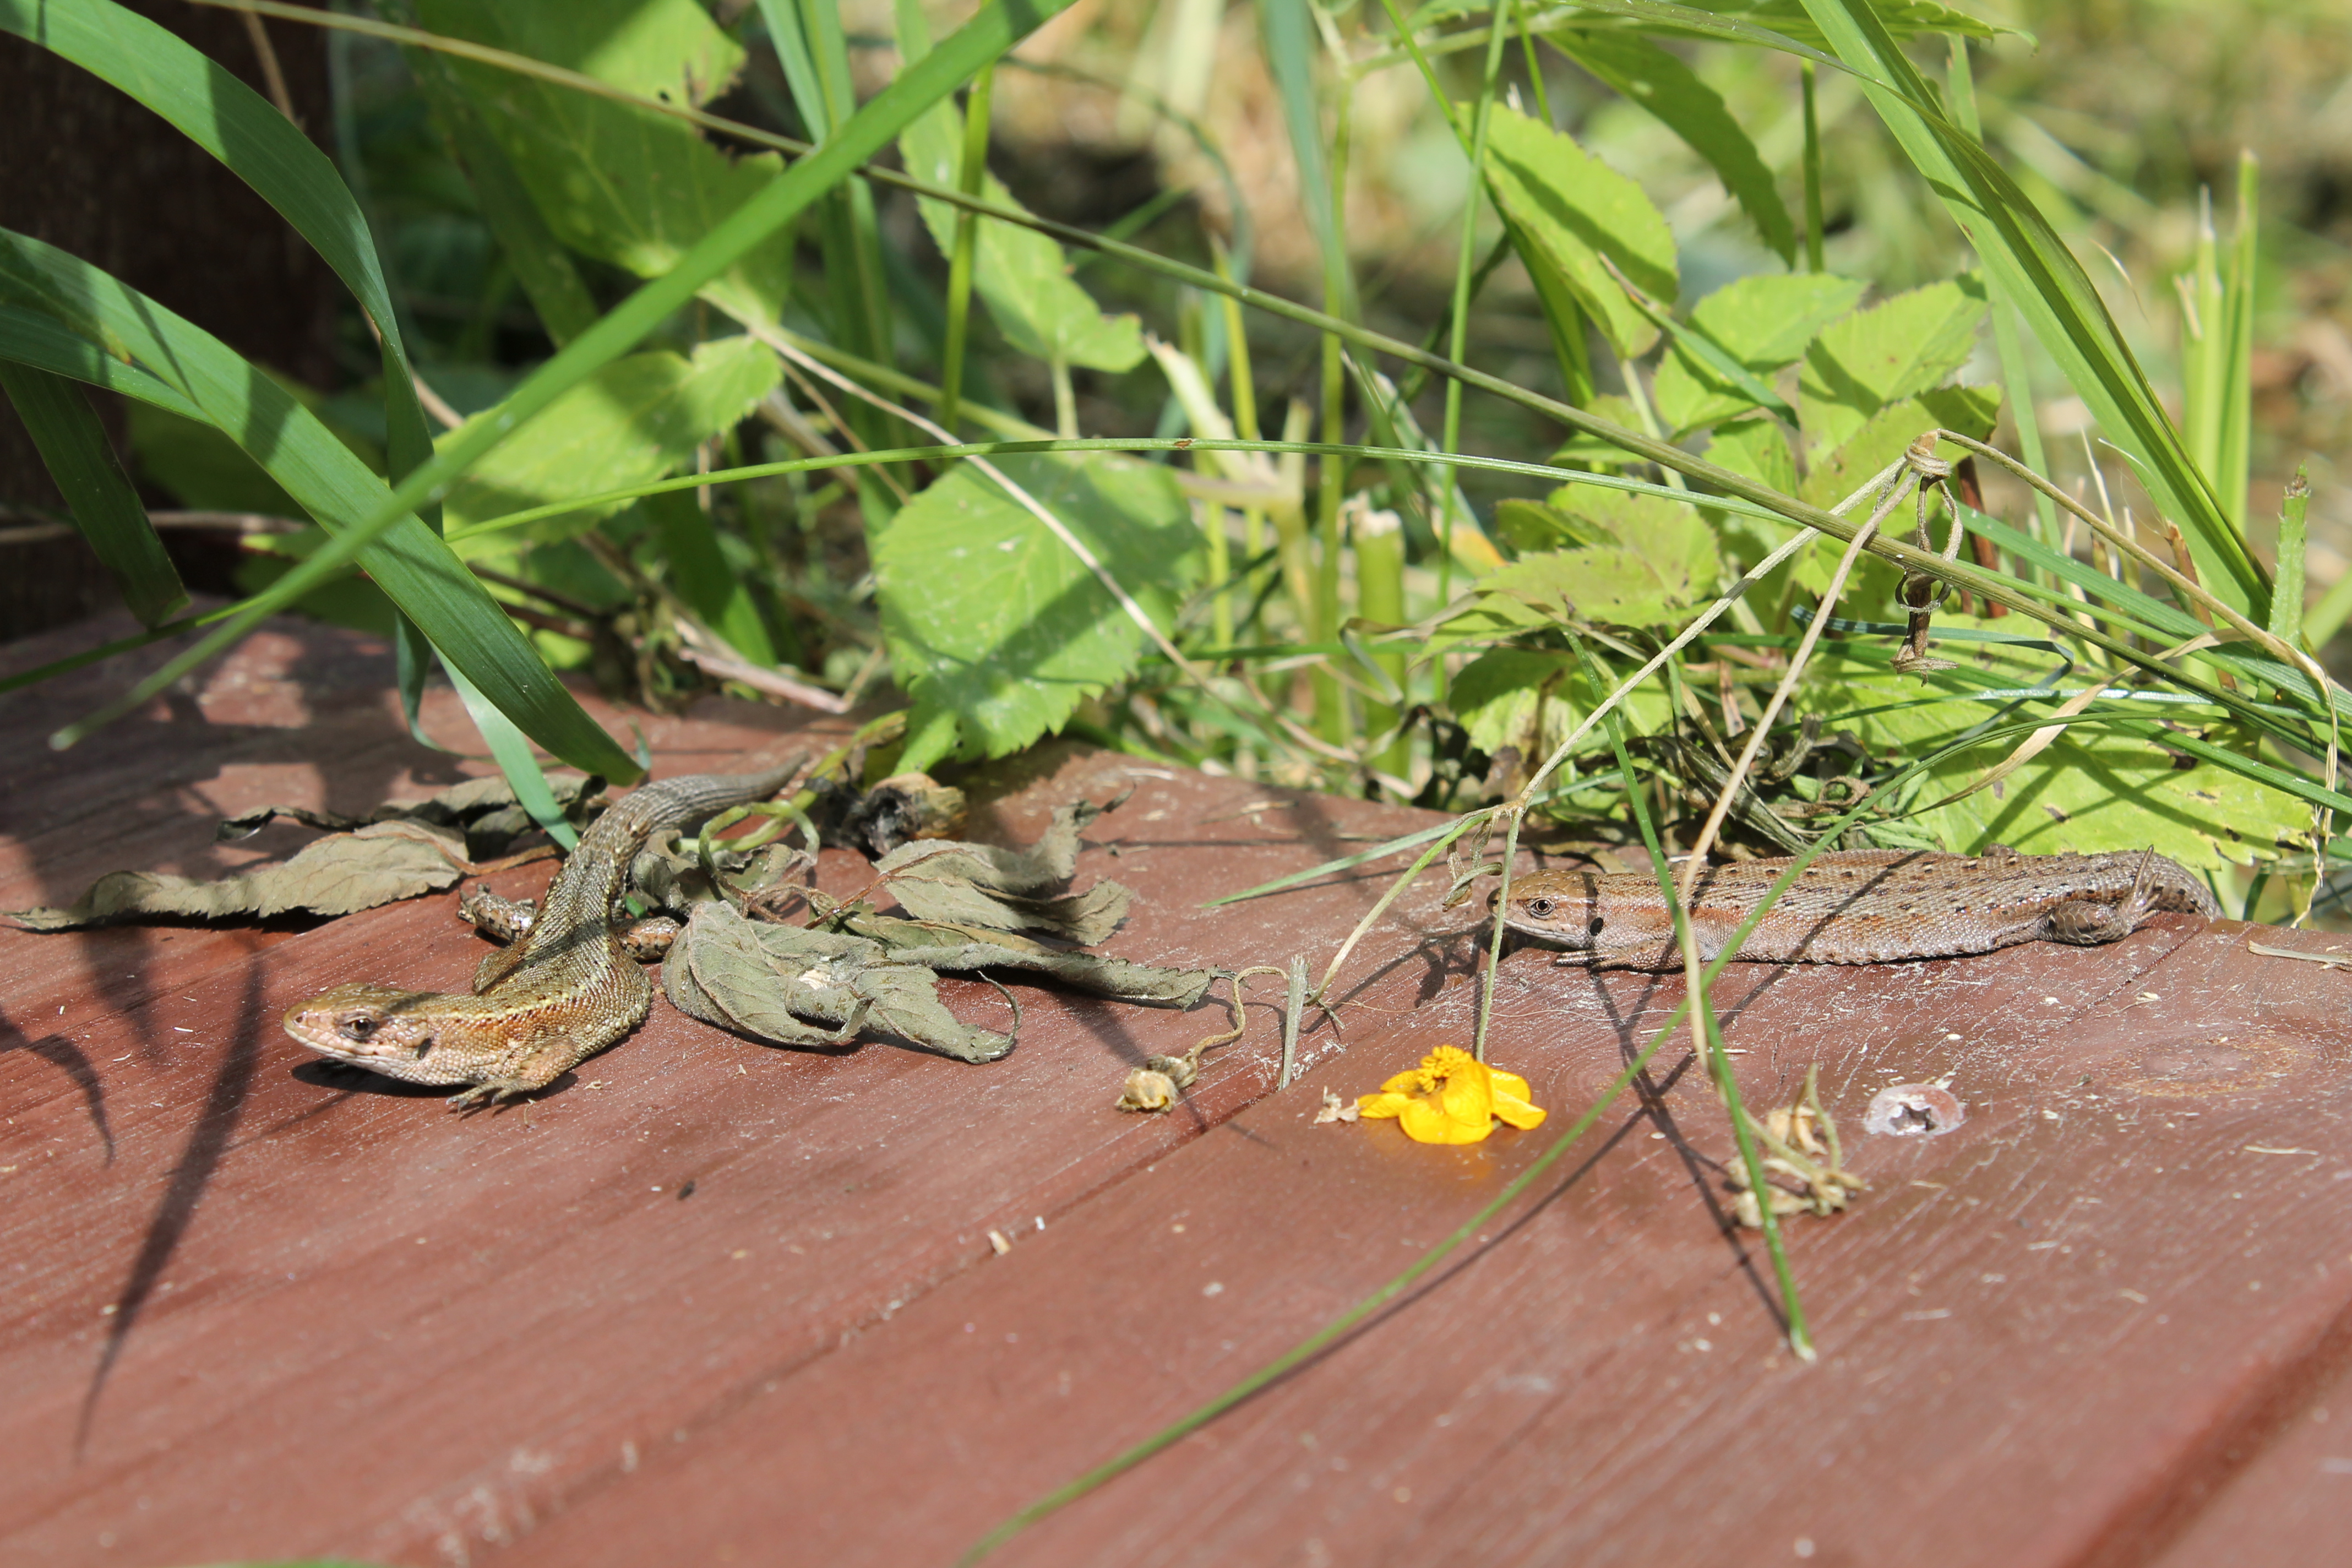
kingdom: Animalia
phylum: Chordata
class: Squamata
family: Lacertidae
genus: Zootoca
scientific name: Zootoca vivipara
